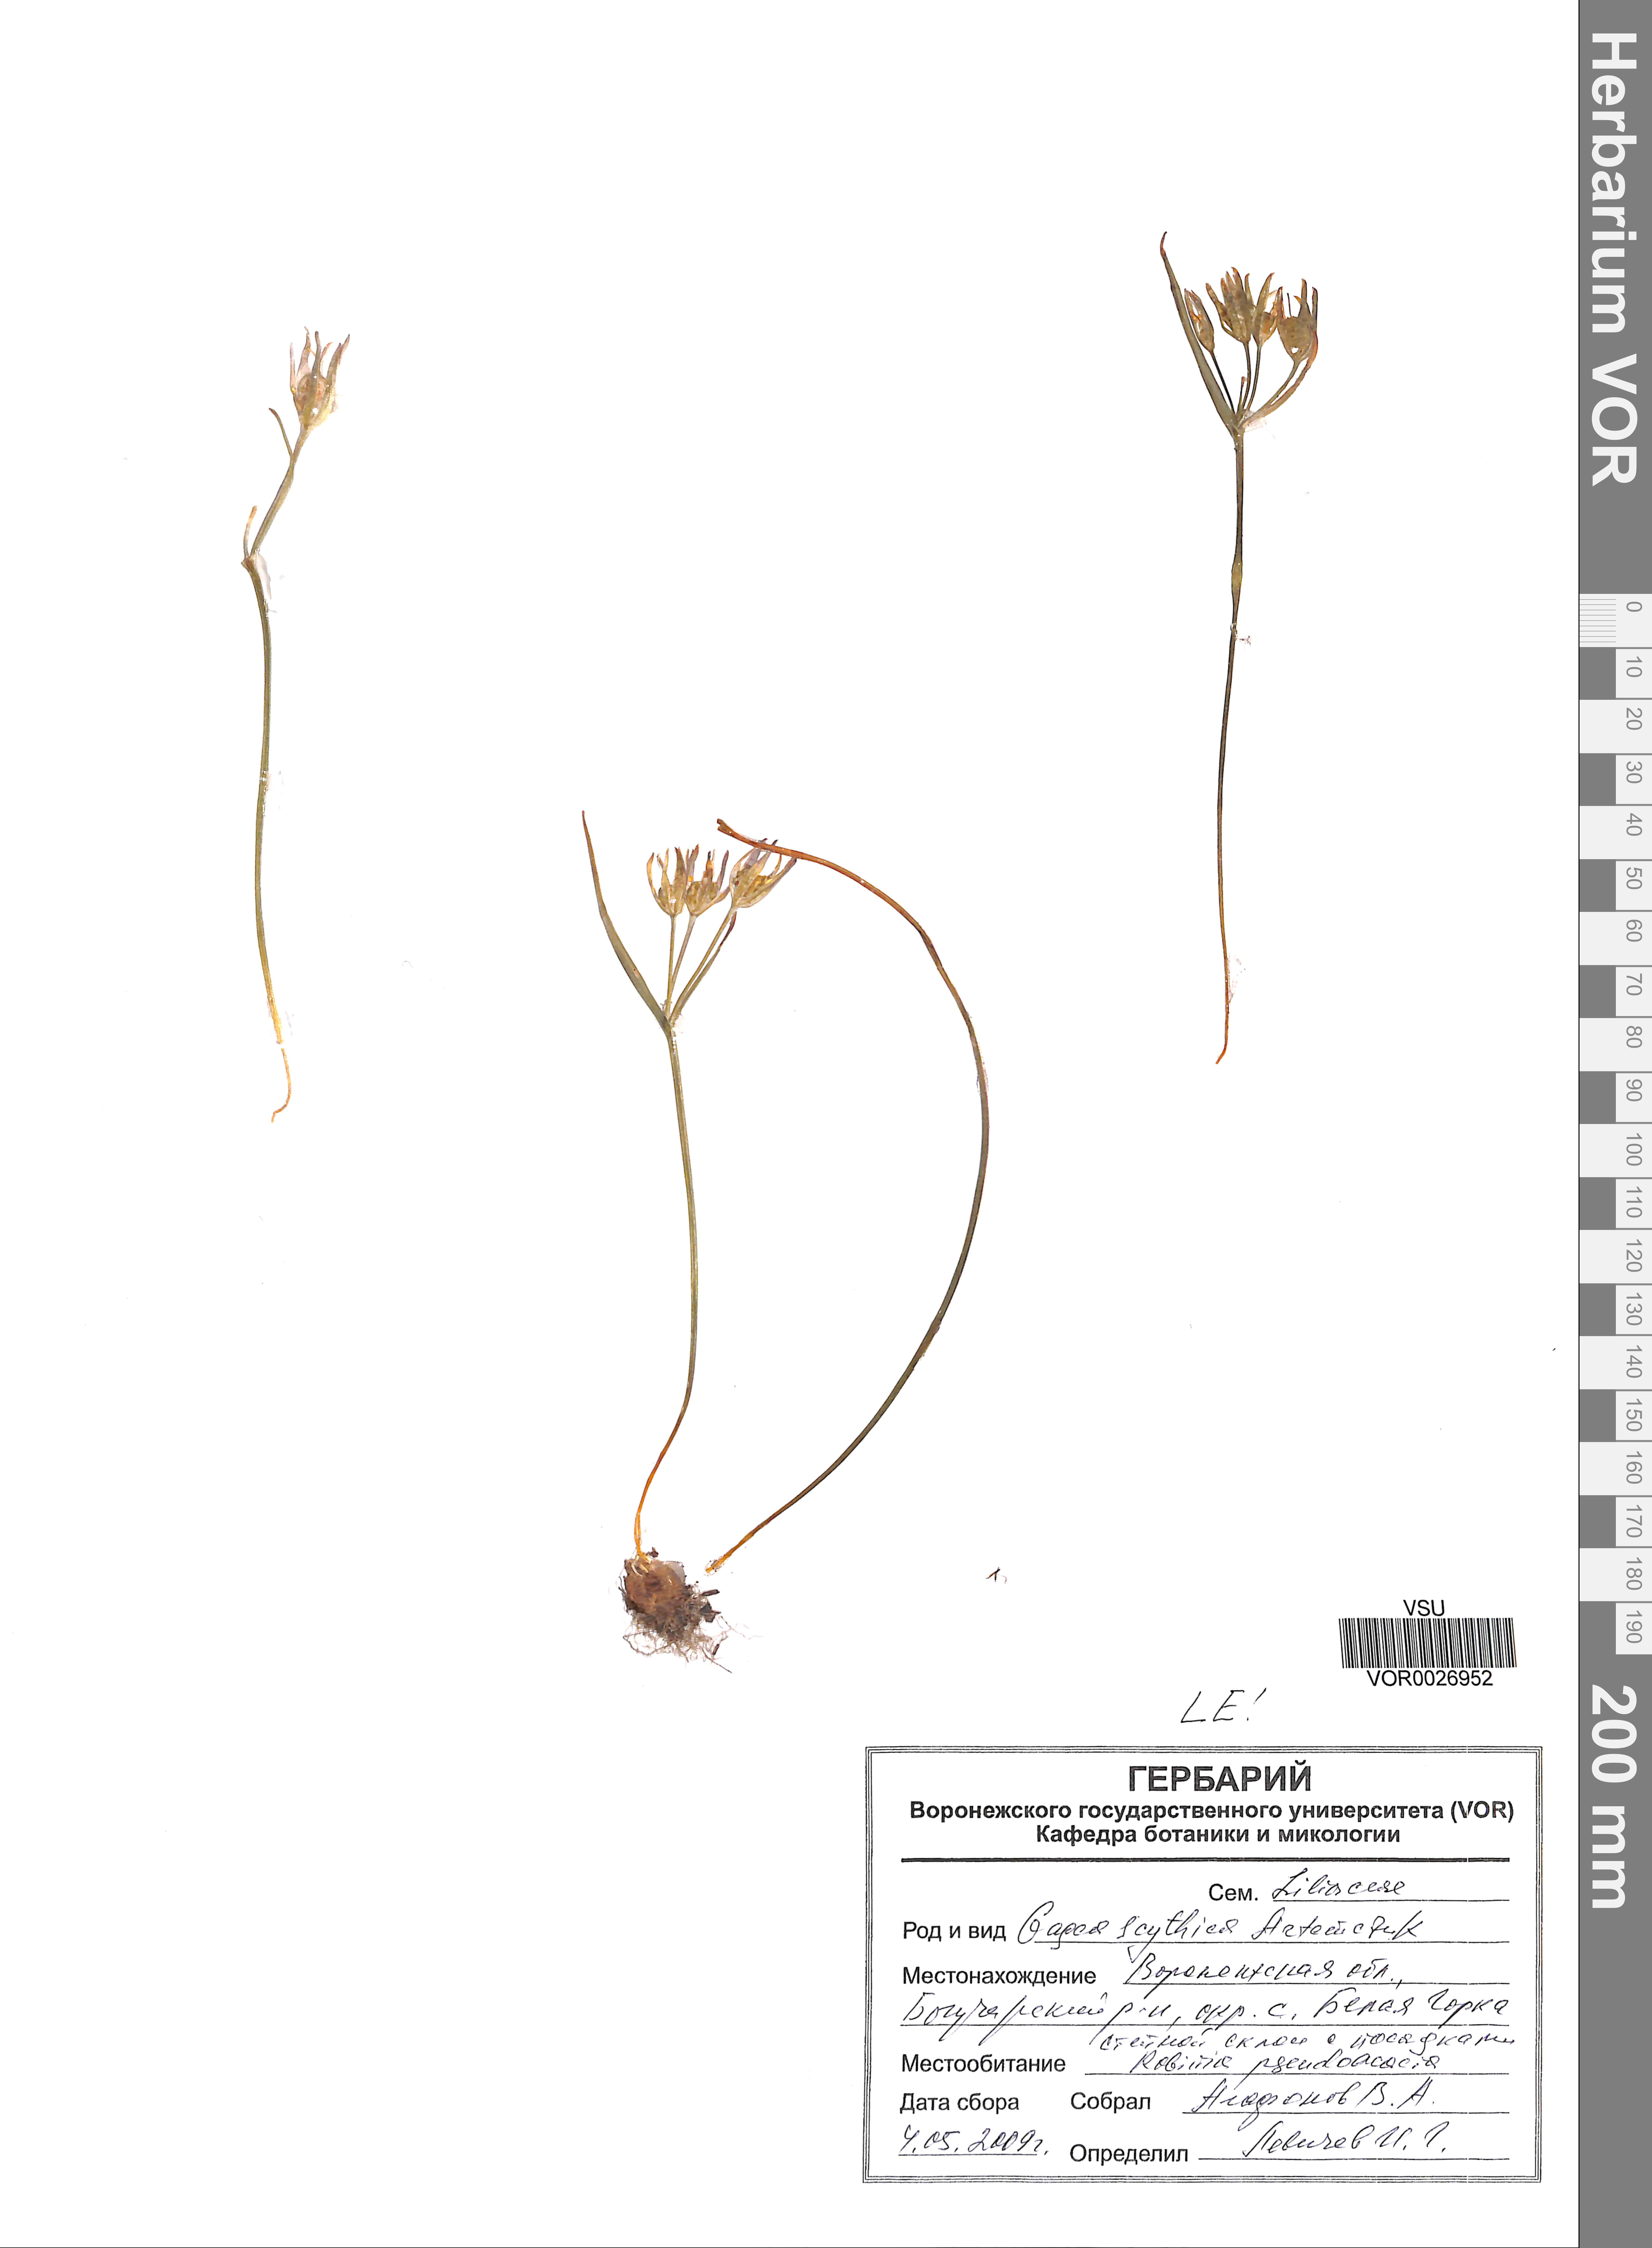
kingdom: Plantae
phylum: Tracheophyta
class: Liliopsida
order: Liliales
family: Liliaceae
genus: Gagea
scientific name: Gagea scythica
